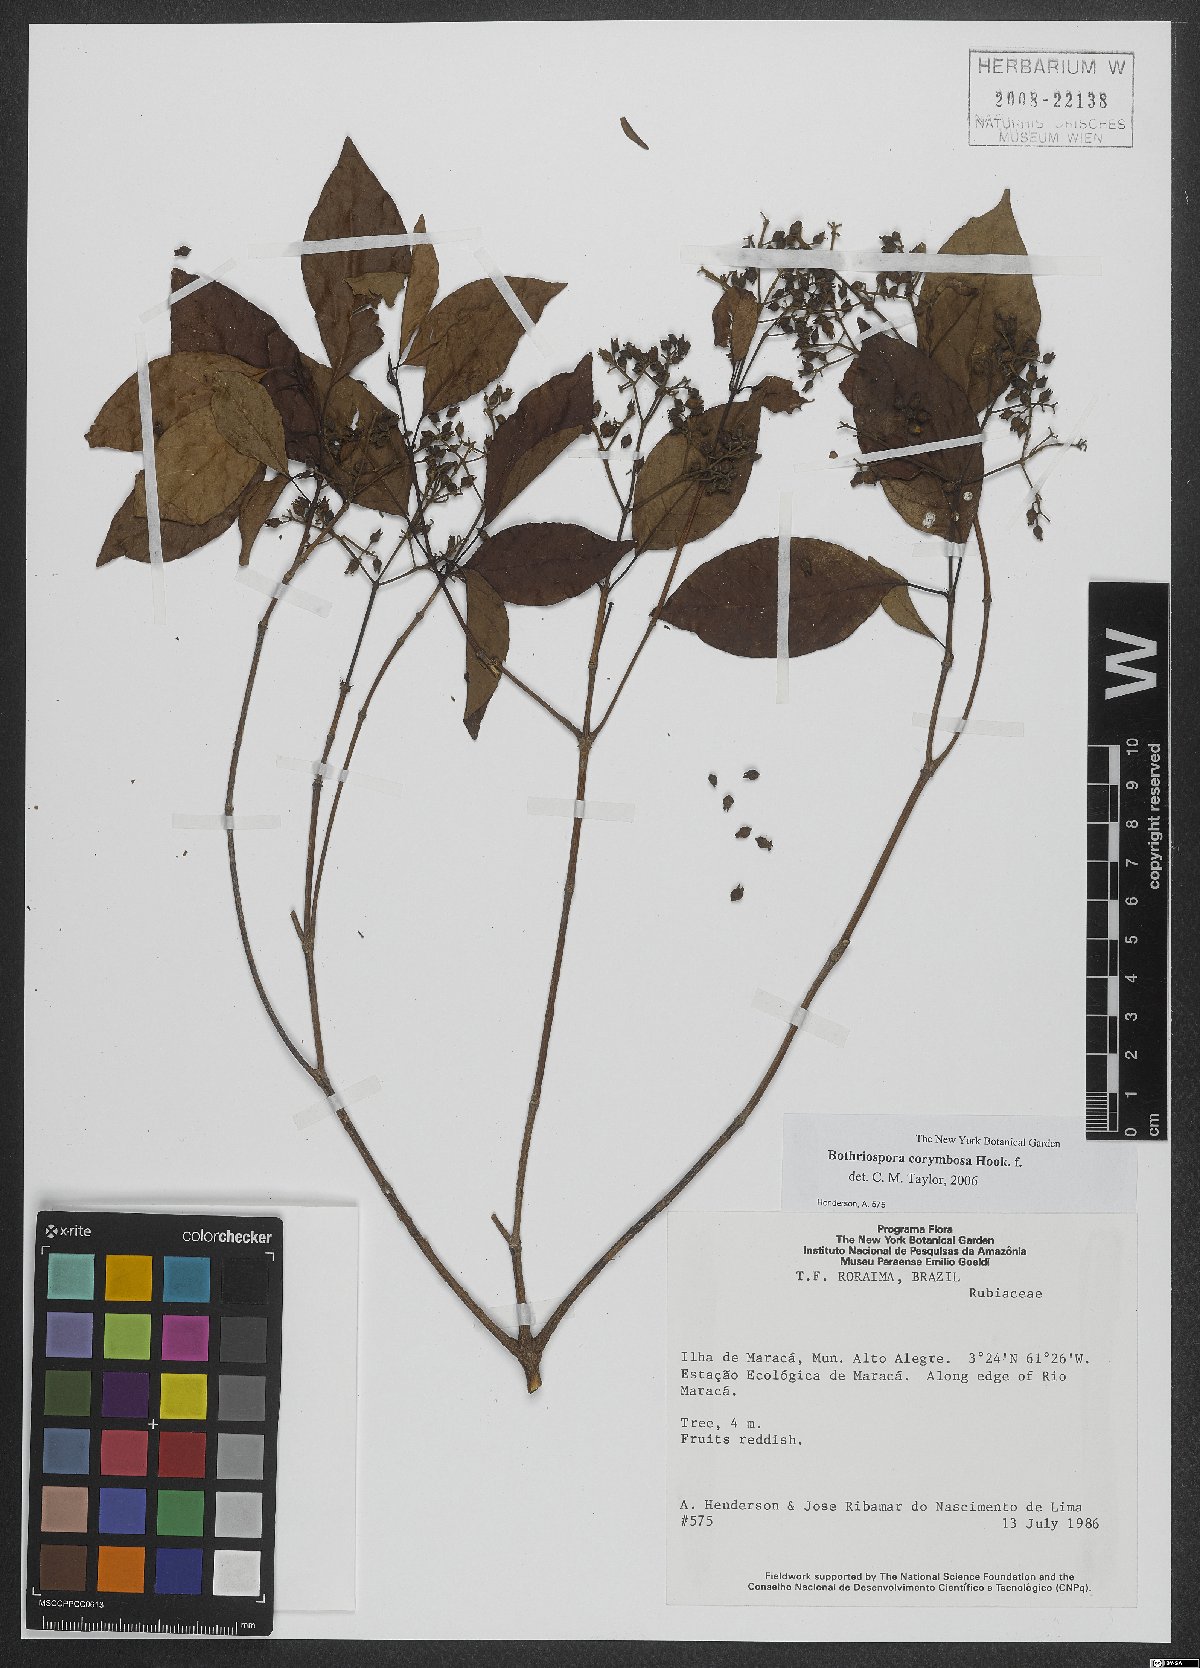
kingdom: Plantae
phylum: Tracheophyta
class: Magnoliopsida
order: Gentianales
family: Rubiaceae
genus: Bothriospora
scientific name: Bothriospora corymbosa
